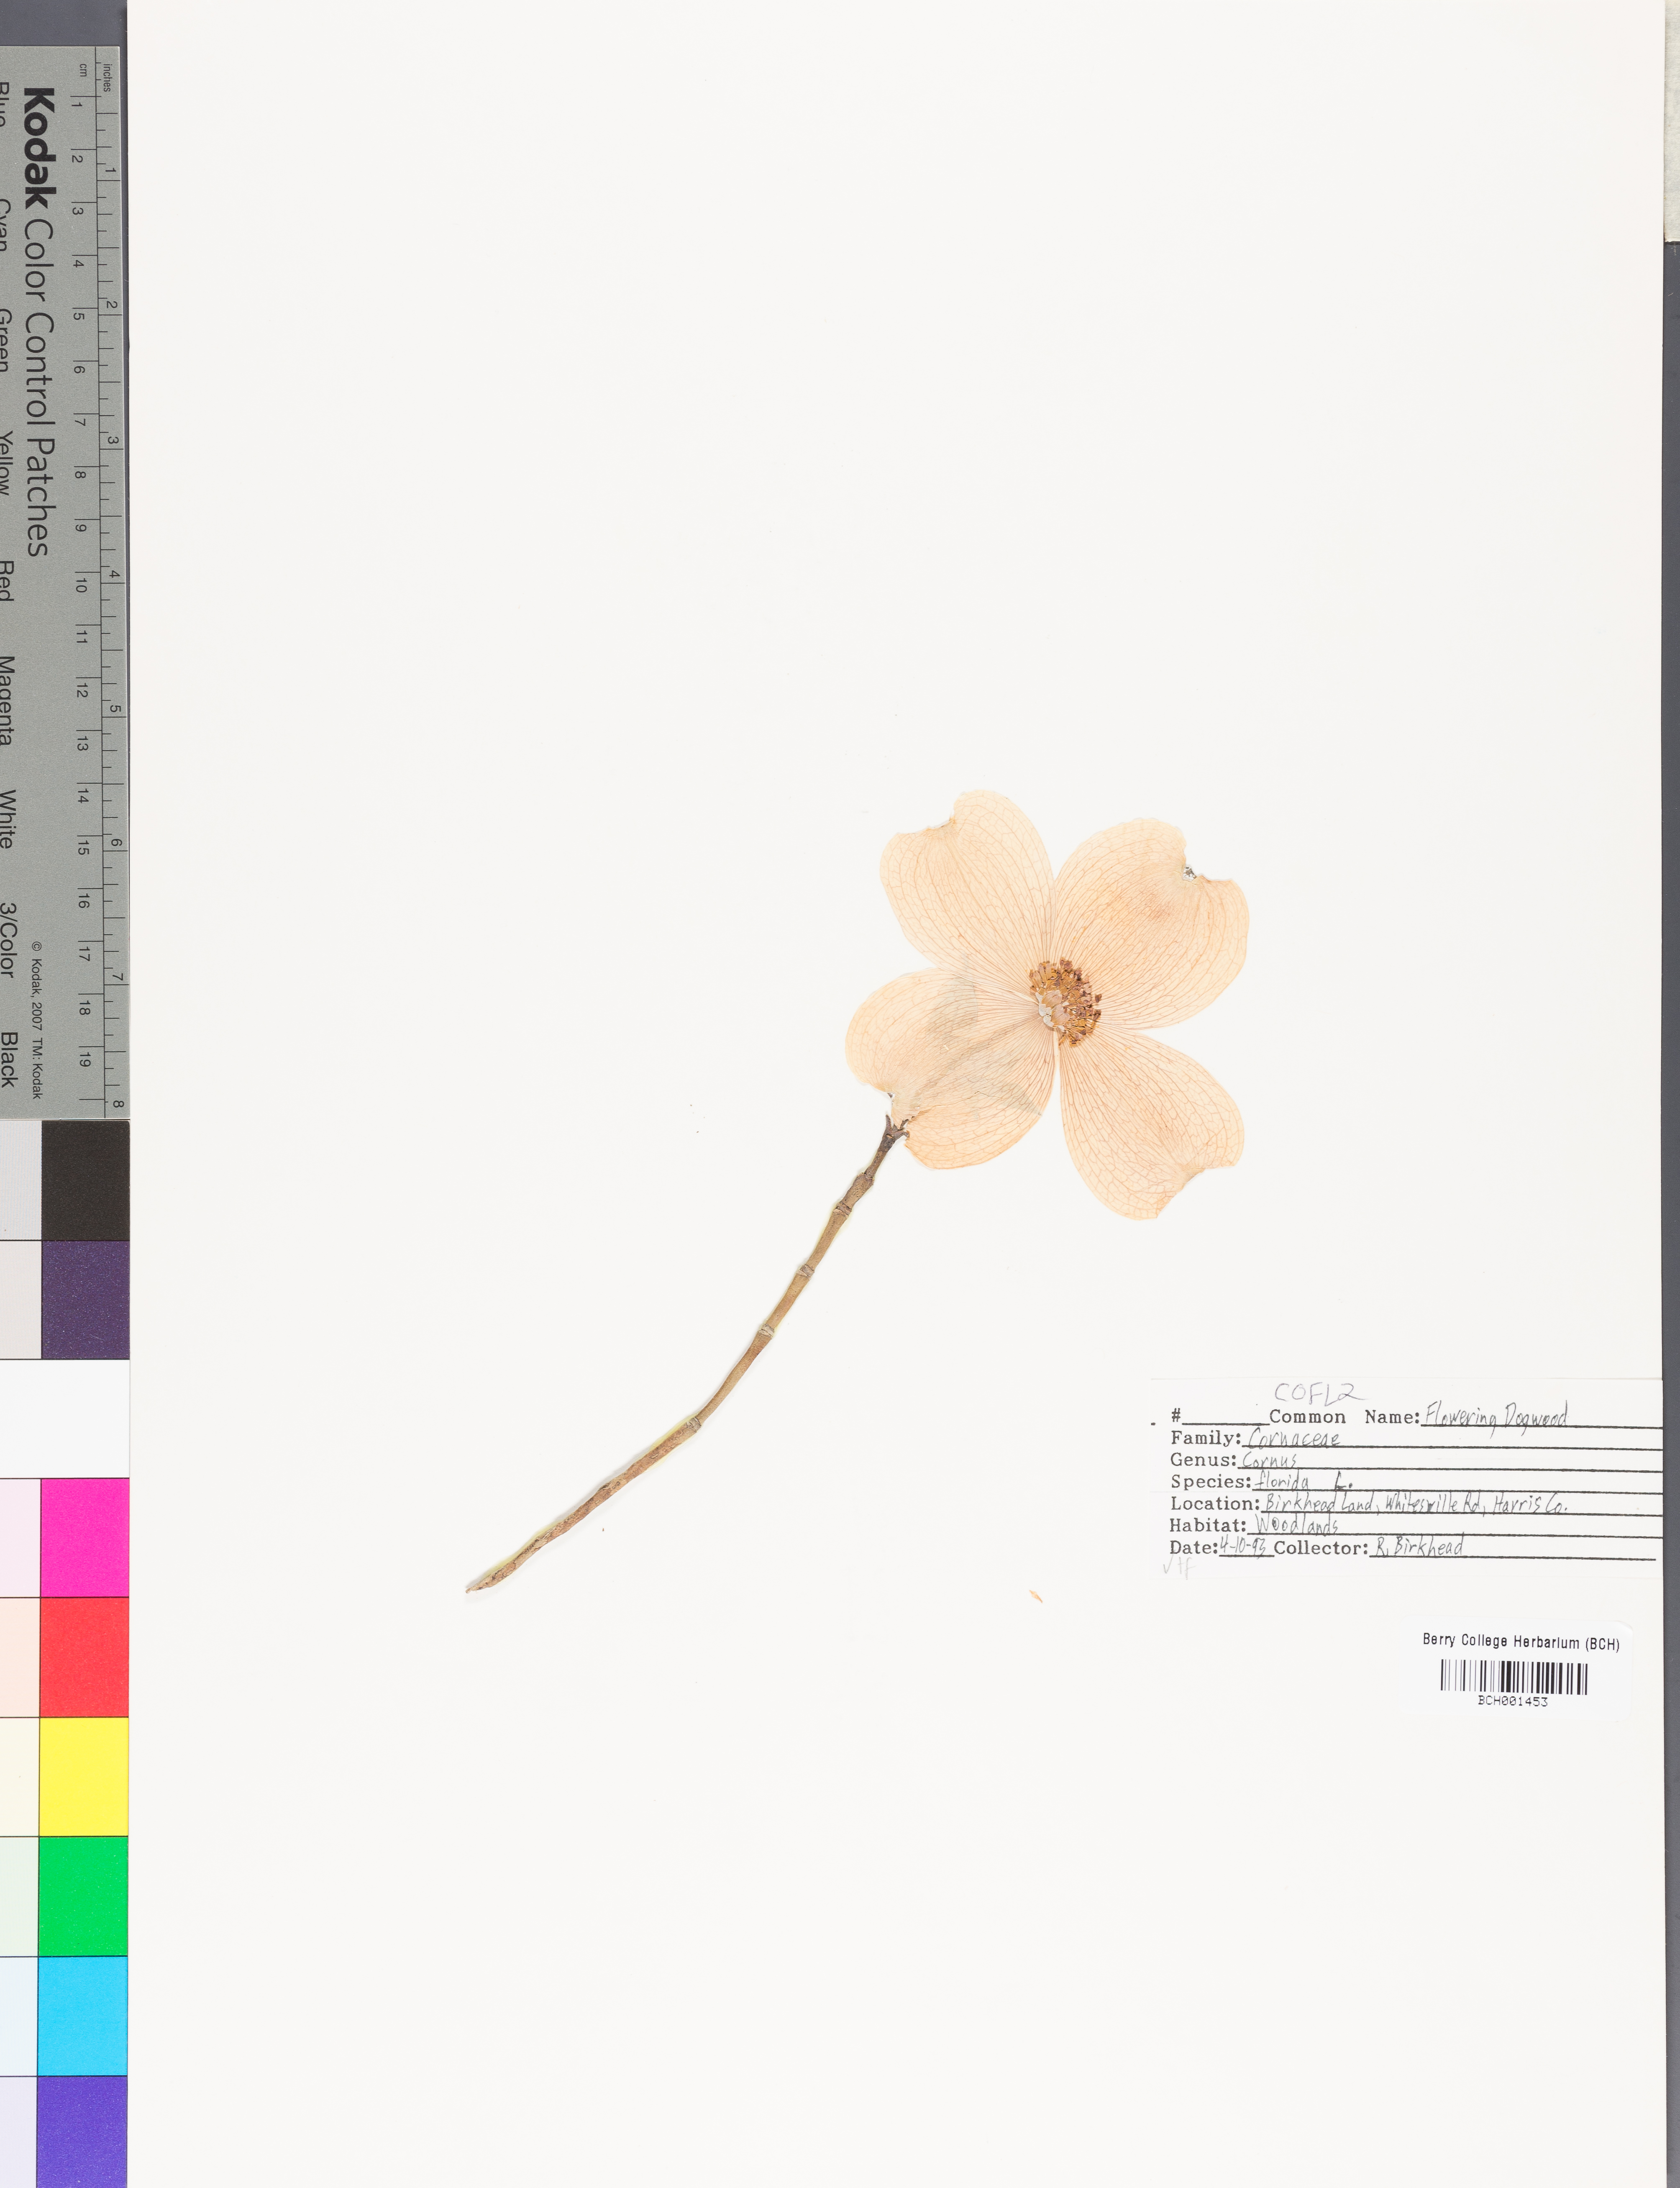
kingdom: Plantae
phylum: Tracheophyta
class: Magnoliopsida
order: Cornales
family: Cornaceae
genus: Cornus
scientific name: Cornus florida
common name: Flowering dogwood
